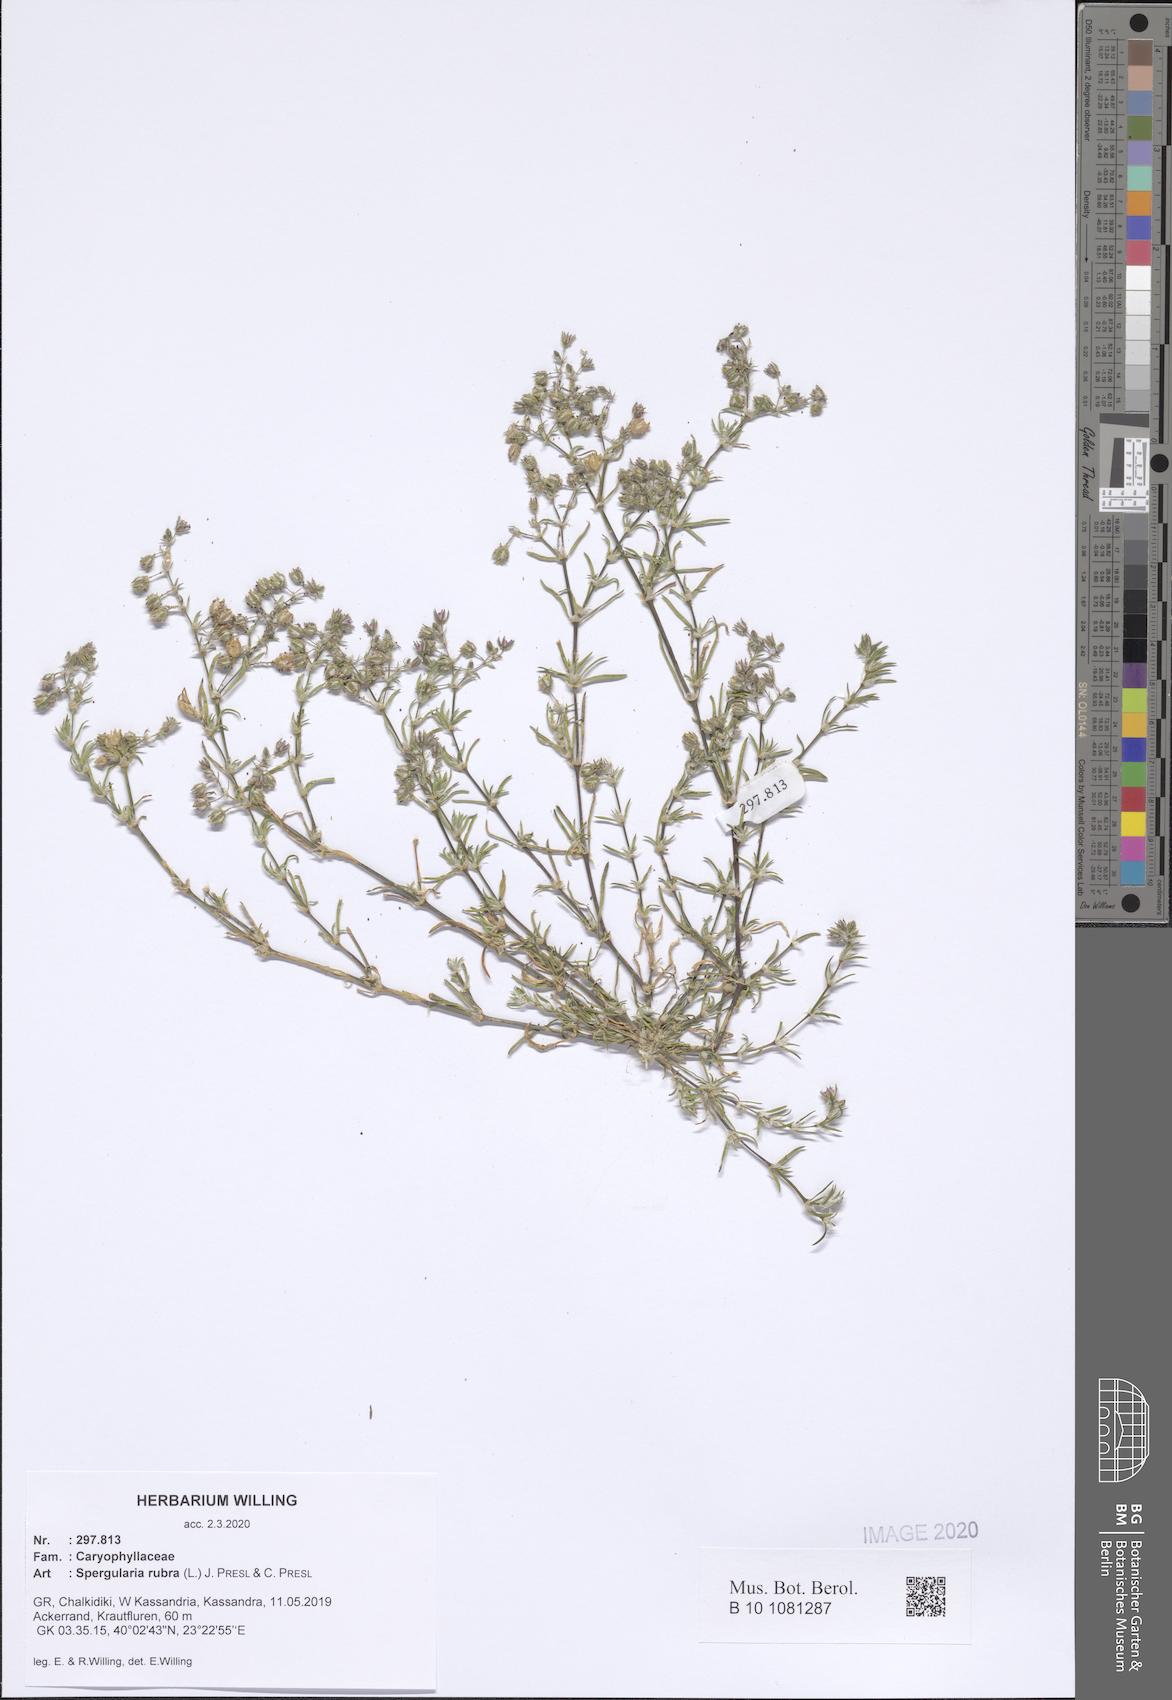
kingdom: Plantae
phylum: Tracheophyta
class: Magnoliopsida
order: Caryophyllales
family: Caryophyllaceae
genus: Spergularia
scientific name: Spergularia rubra
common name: Red sand-spurrey
